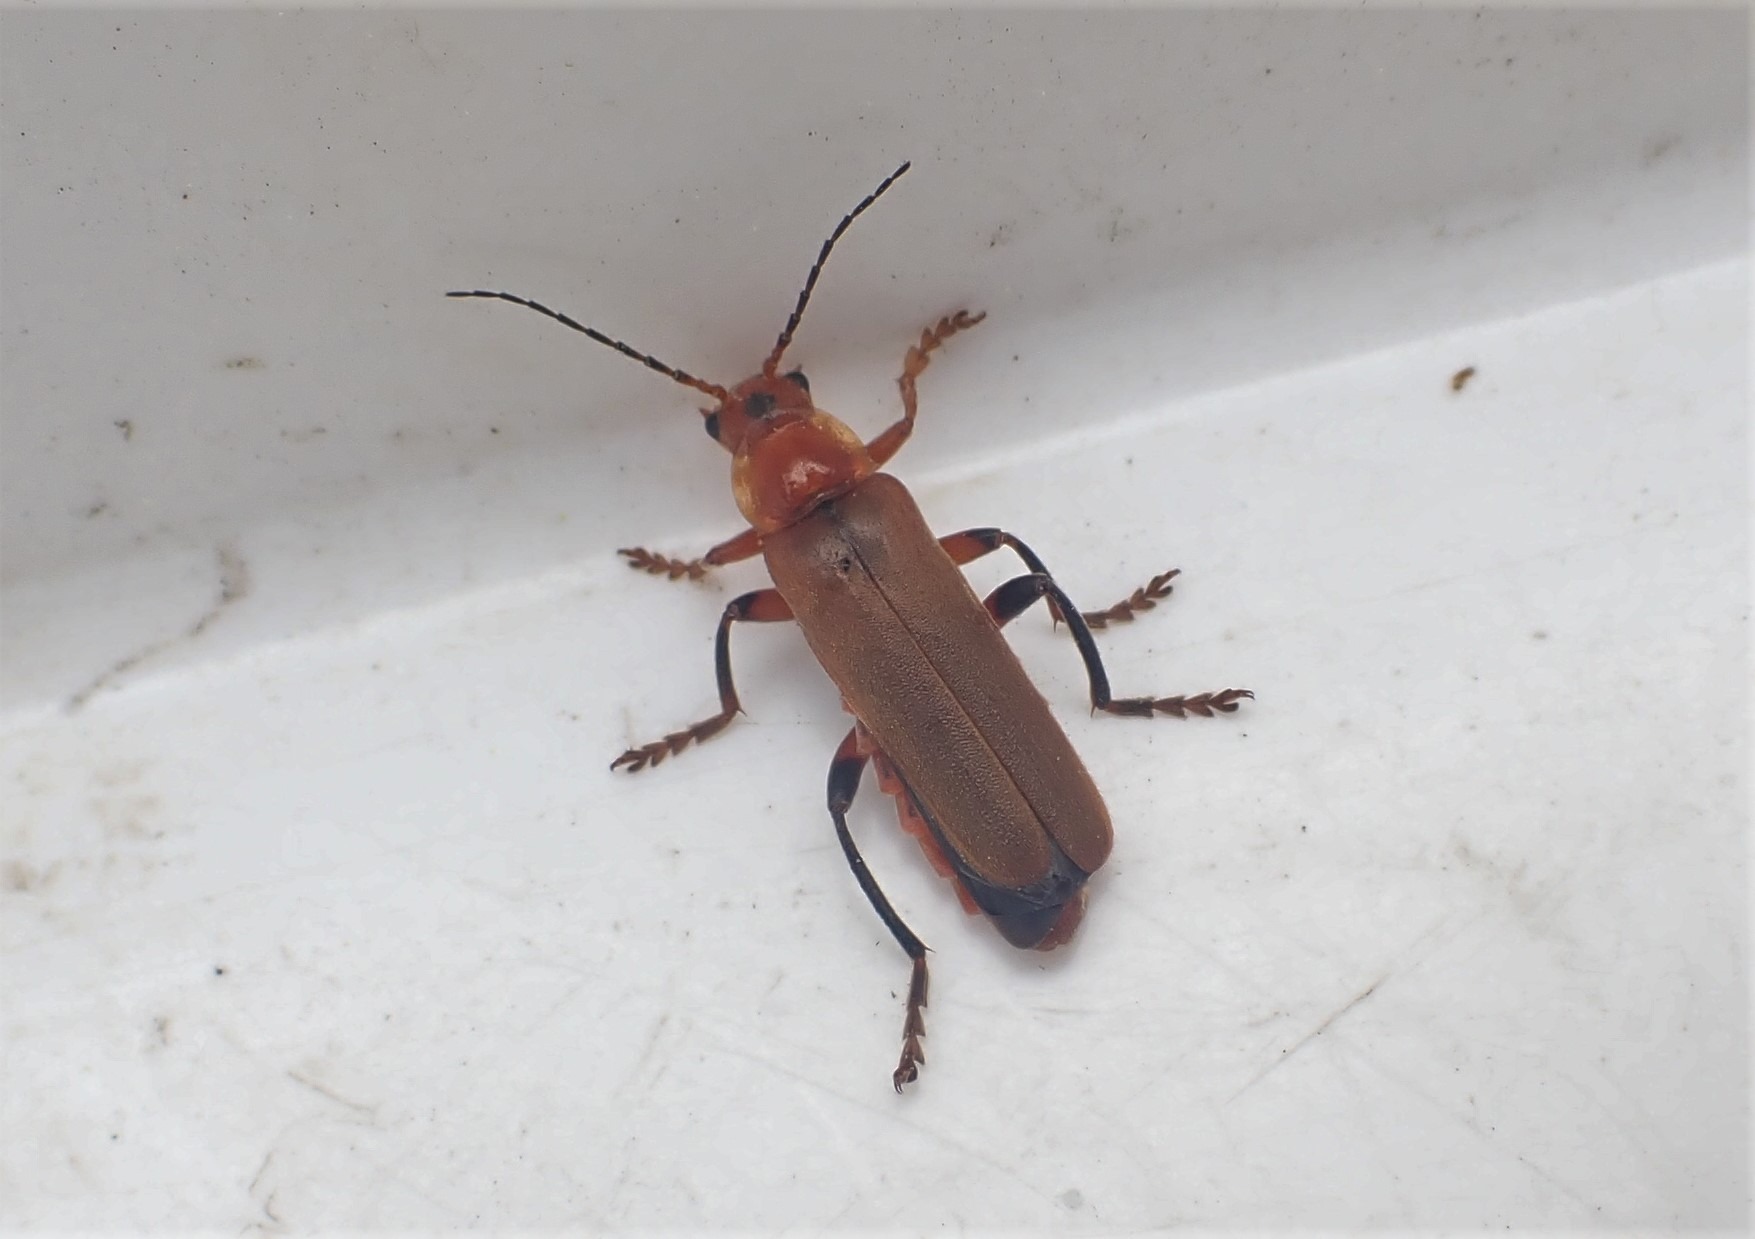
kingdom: Animalia
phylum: Arthropoda
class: Insecta
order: Coleoptera
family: Cantharidae
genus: Cantharis
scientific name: Cantharis livida
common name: Gul blødvinge
